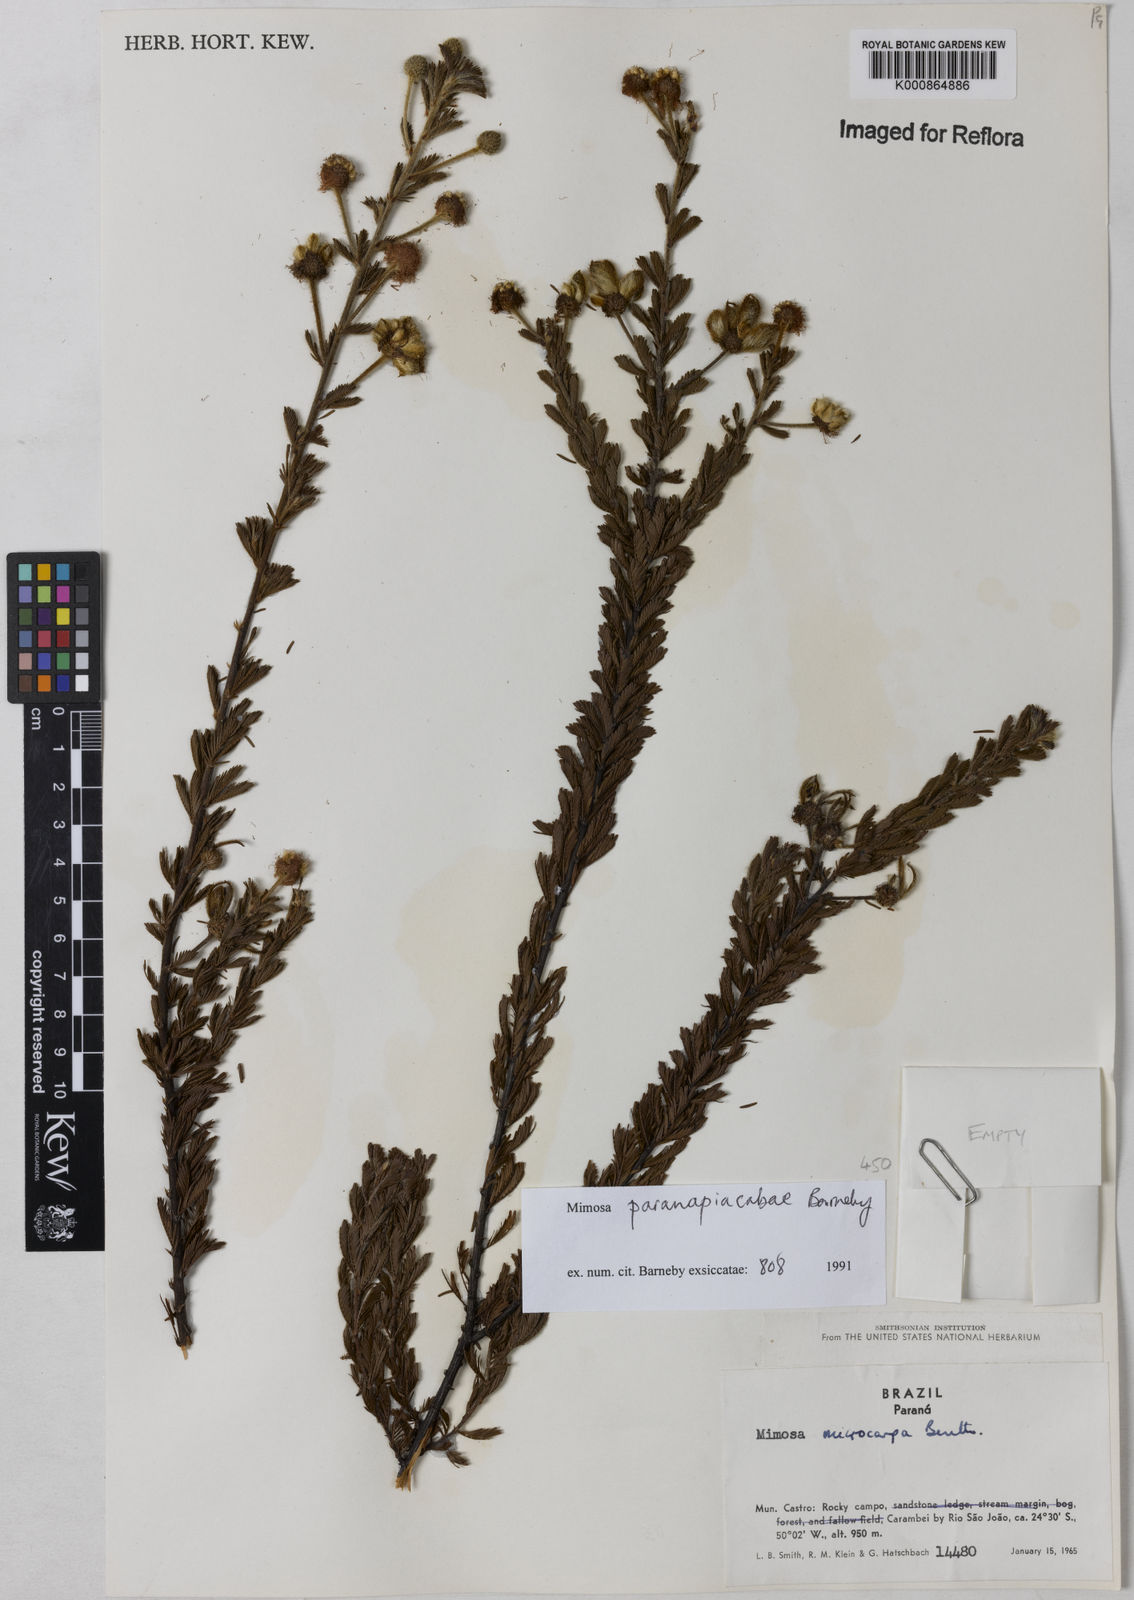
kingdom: Plantae
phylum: Tracheophyta
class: Magnoliopsida
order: Fabales
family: Fabaceae
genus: Mimosa
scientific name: Mimosa paranapiacabae
